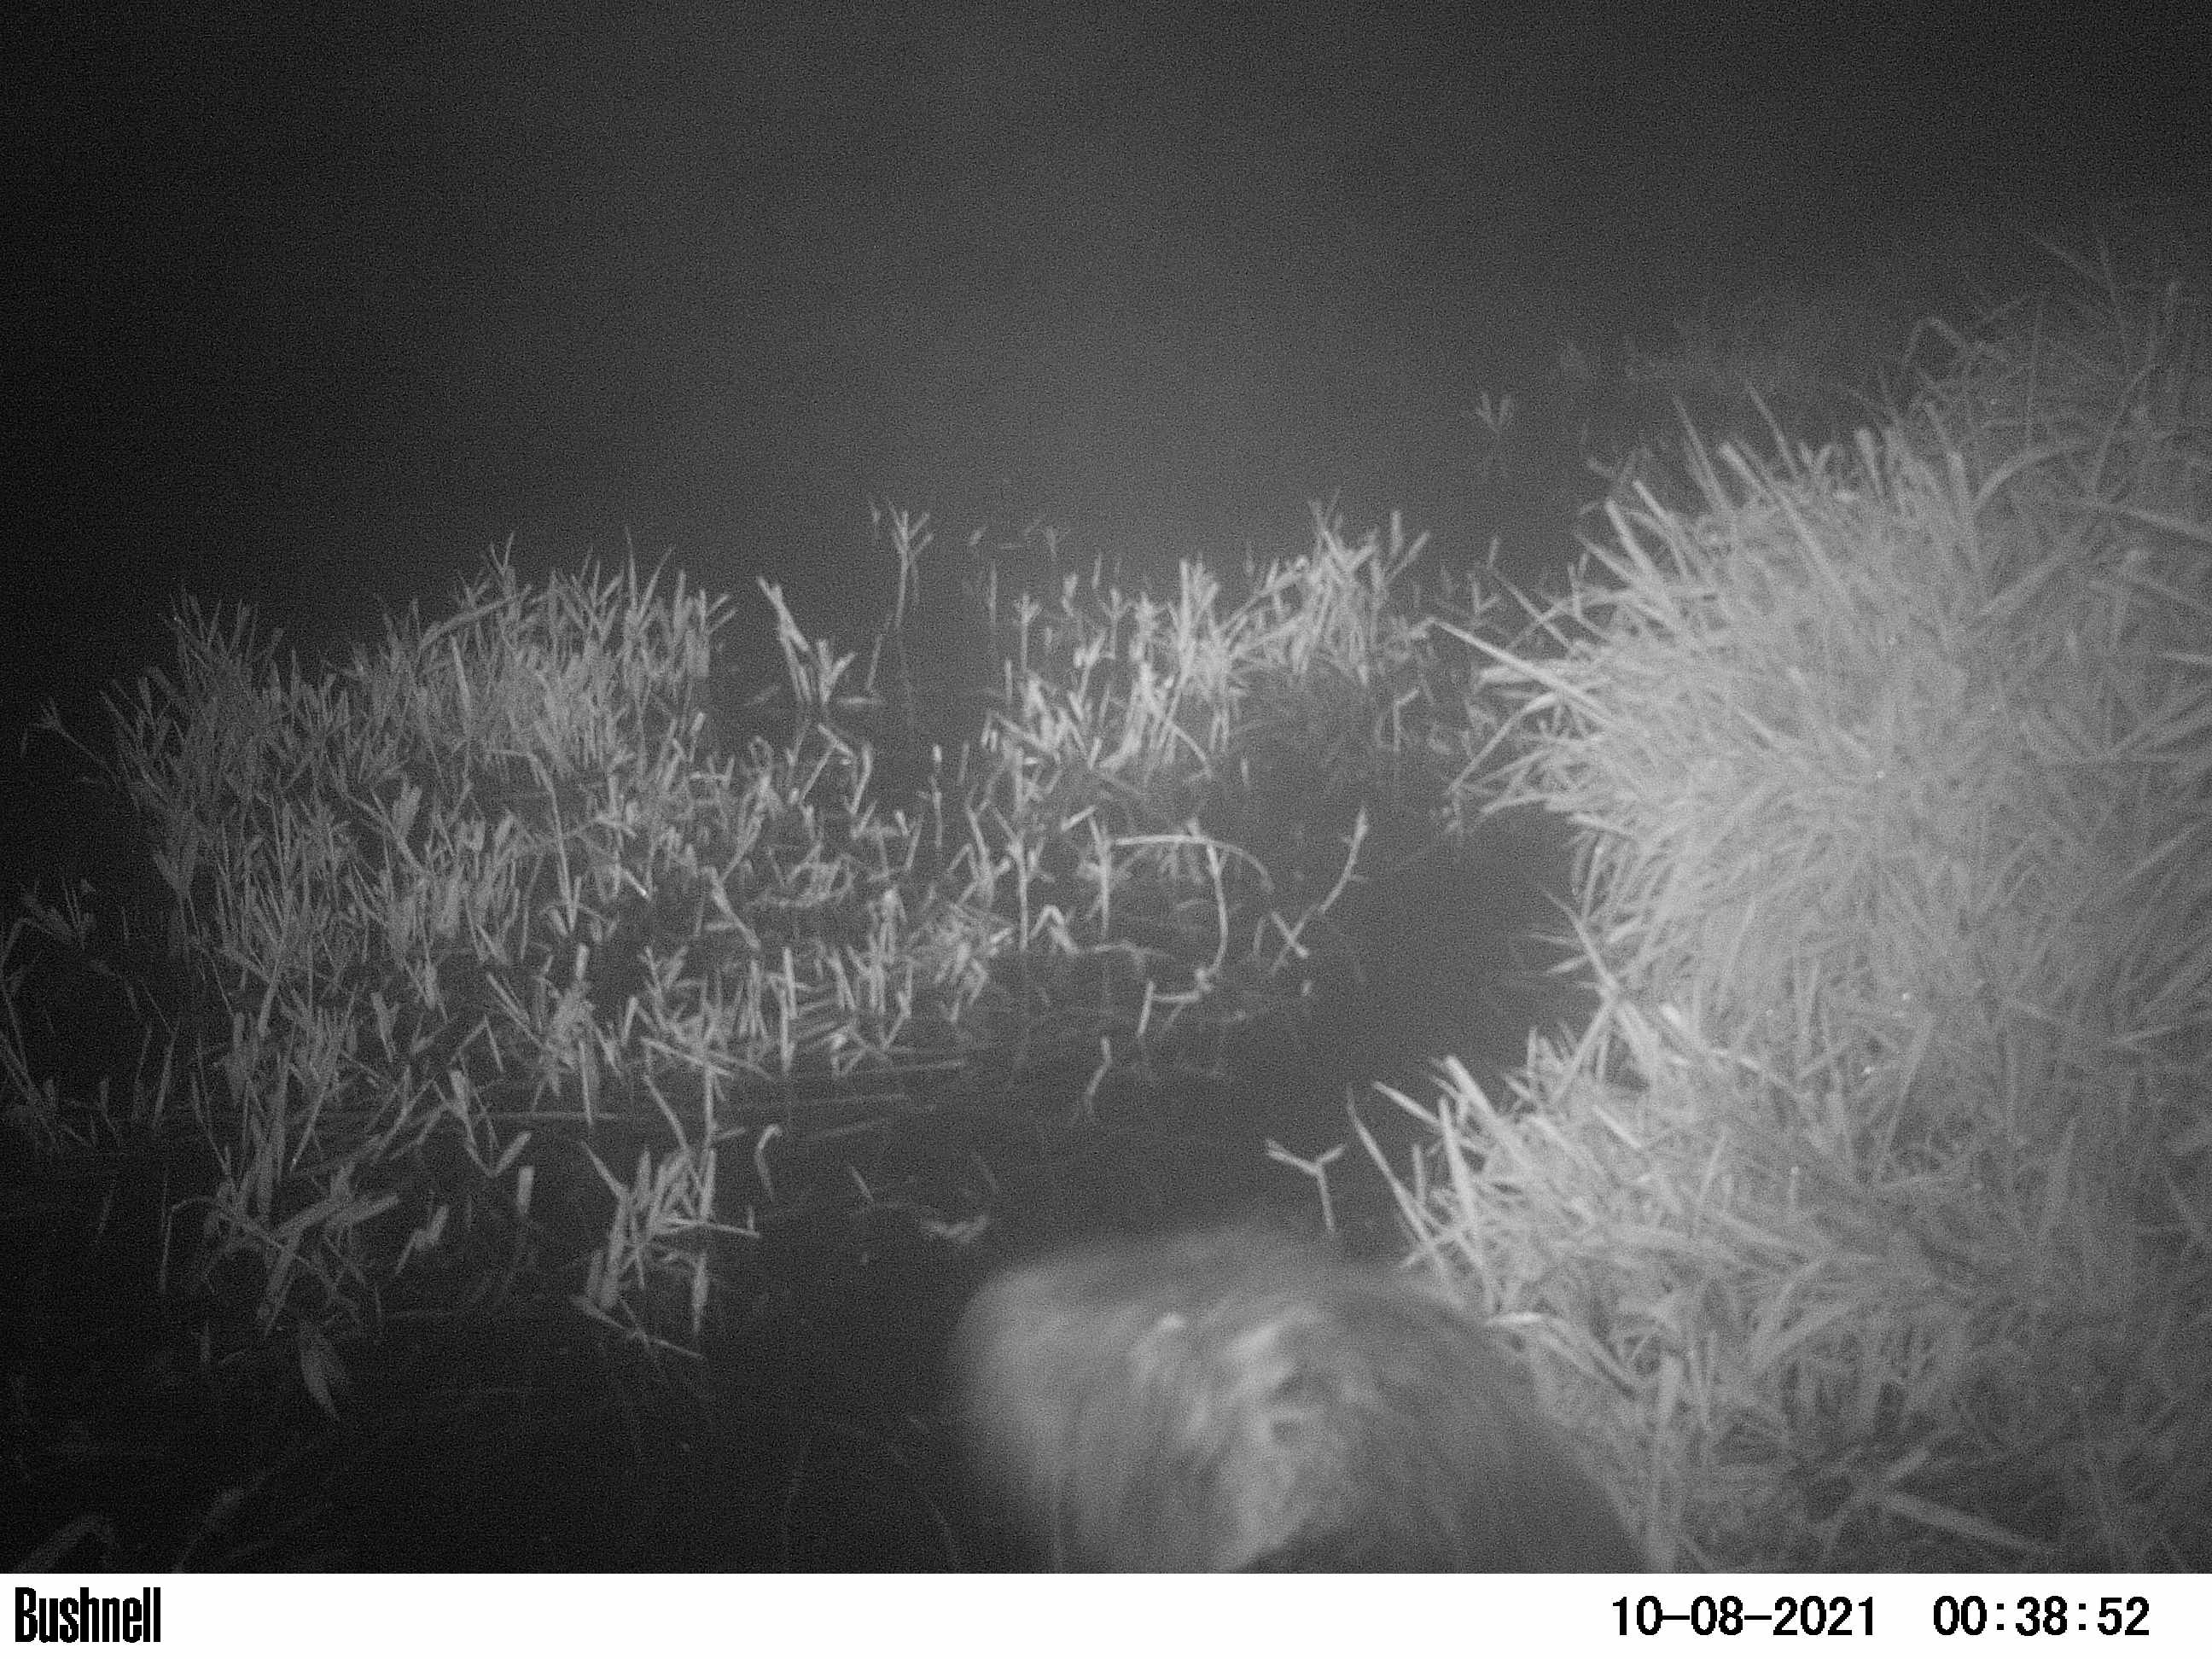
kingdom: Animalia
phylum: Chordata
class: Mammalia
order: Rodentia
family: Castoridae
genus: Castor
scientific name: Castor fiber
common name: Eurasian beaver
